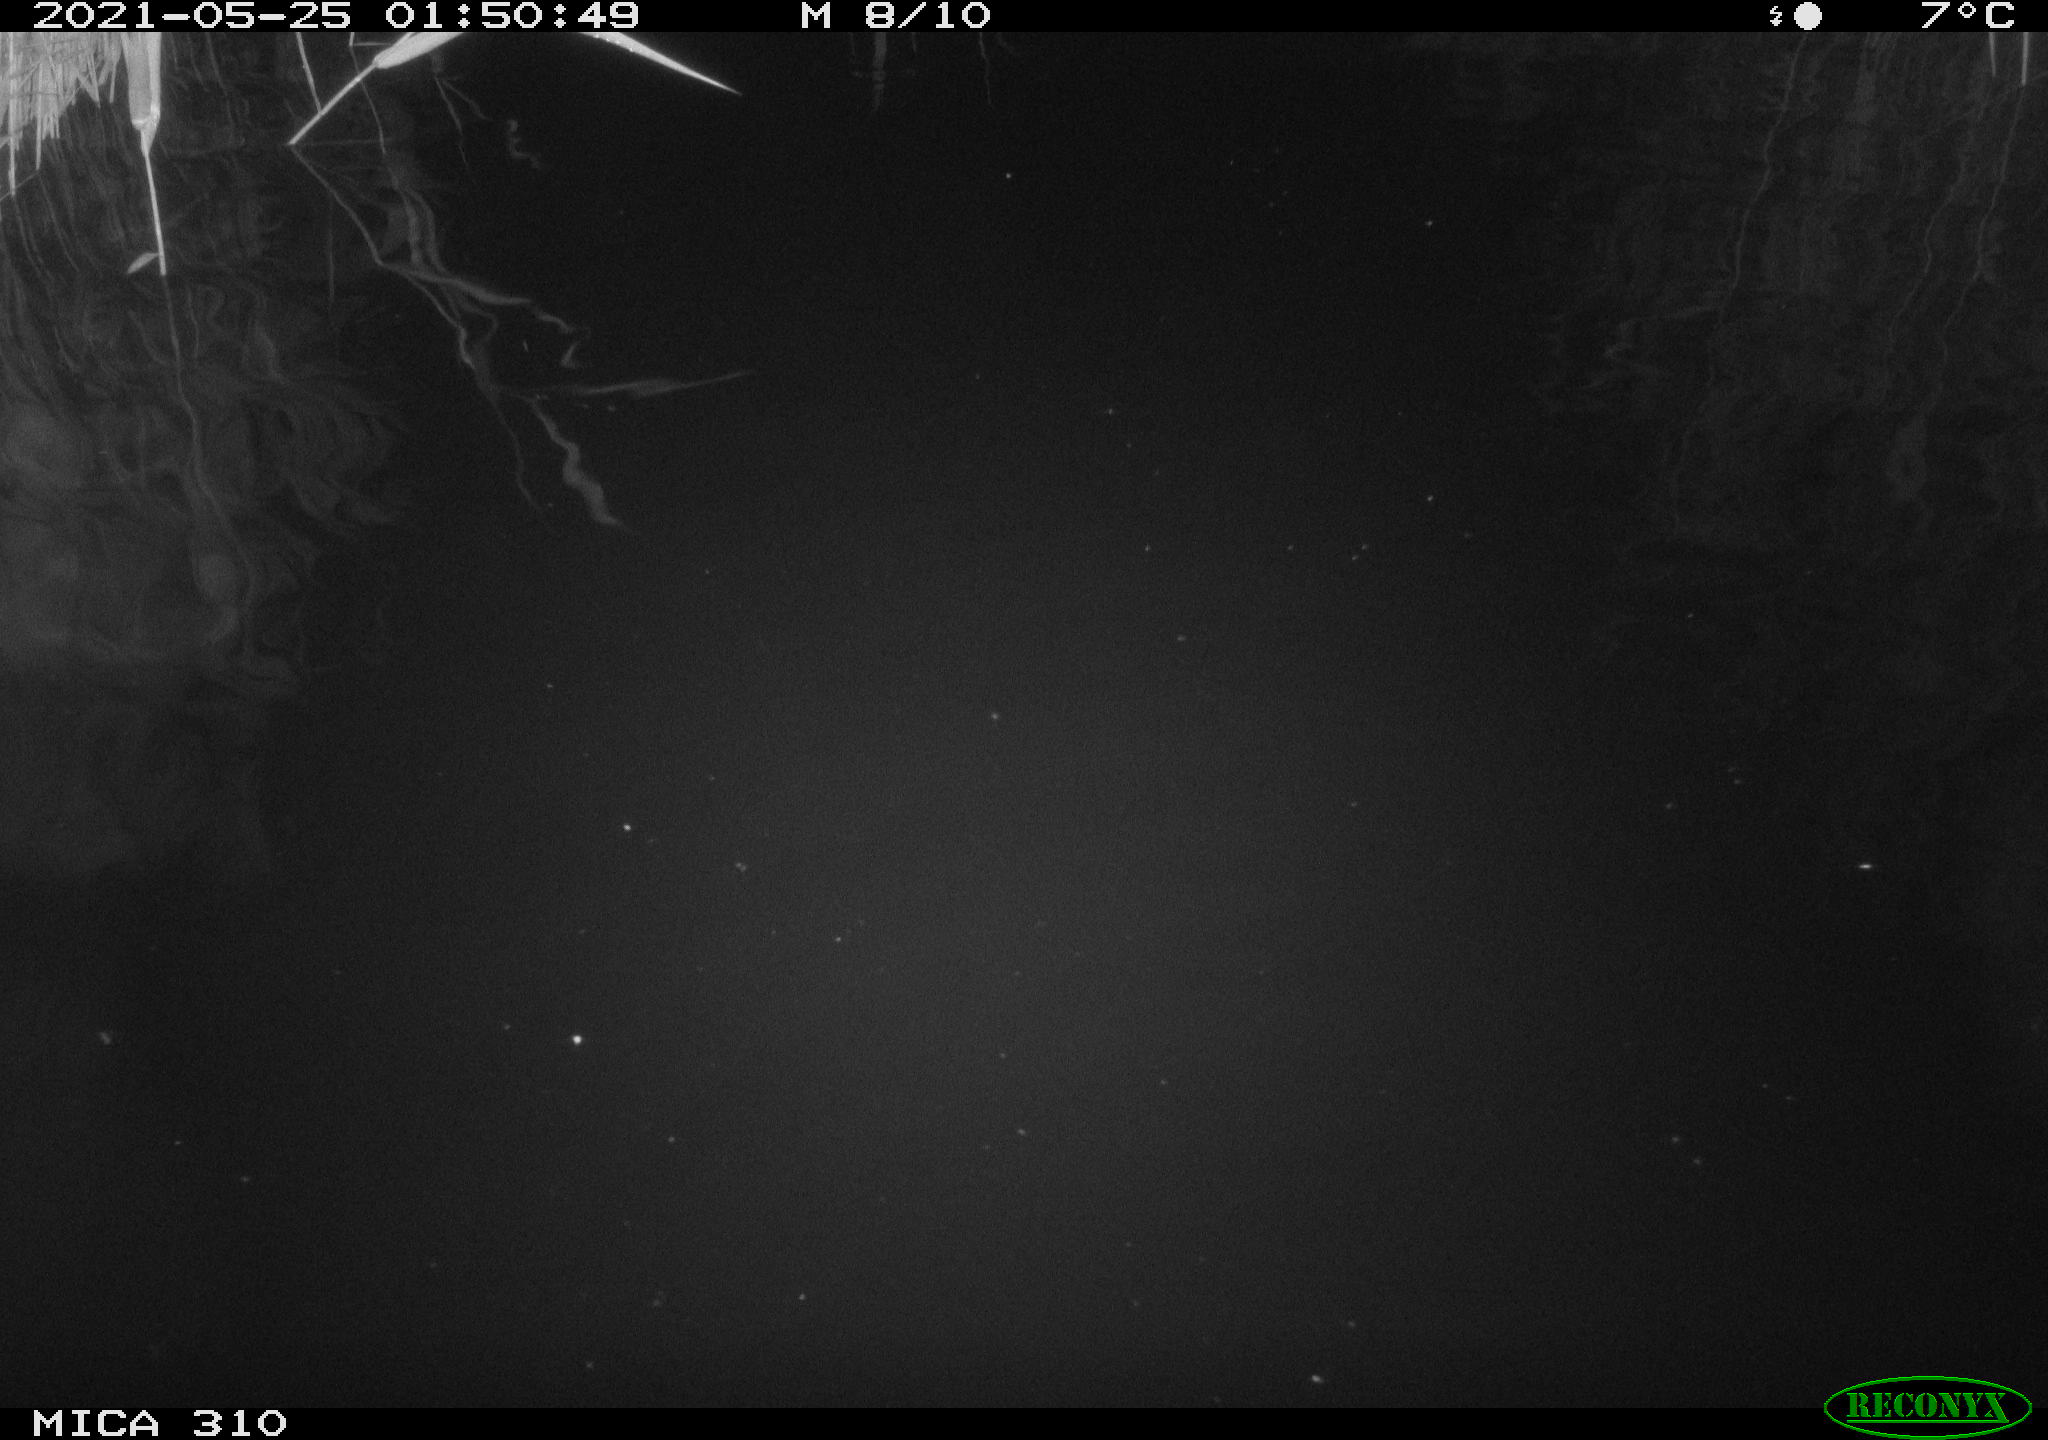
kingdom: Animalia
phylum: Chordata
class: Mammalia
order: Rodentia
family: Cricetidae
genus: Ondatra
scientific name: Ondatra zibethicus
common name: Muskrat
